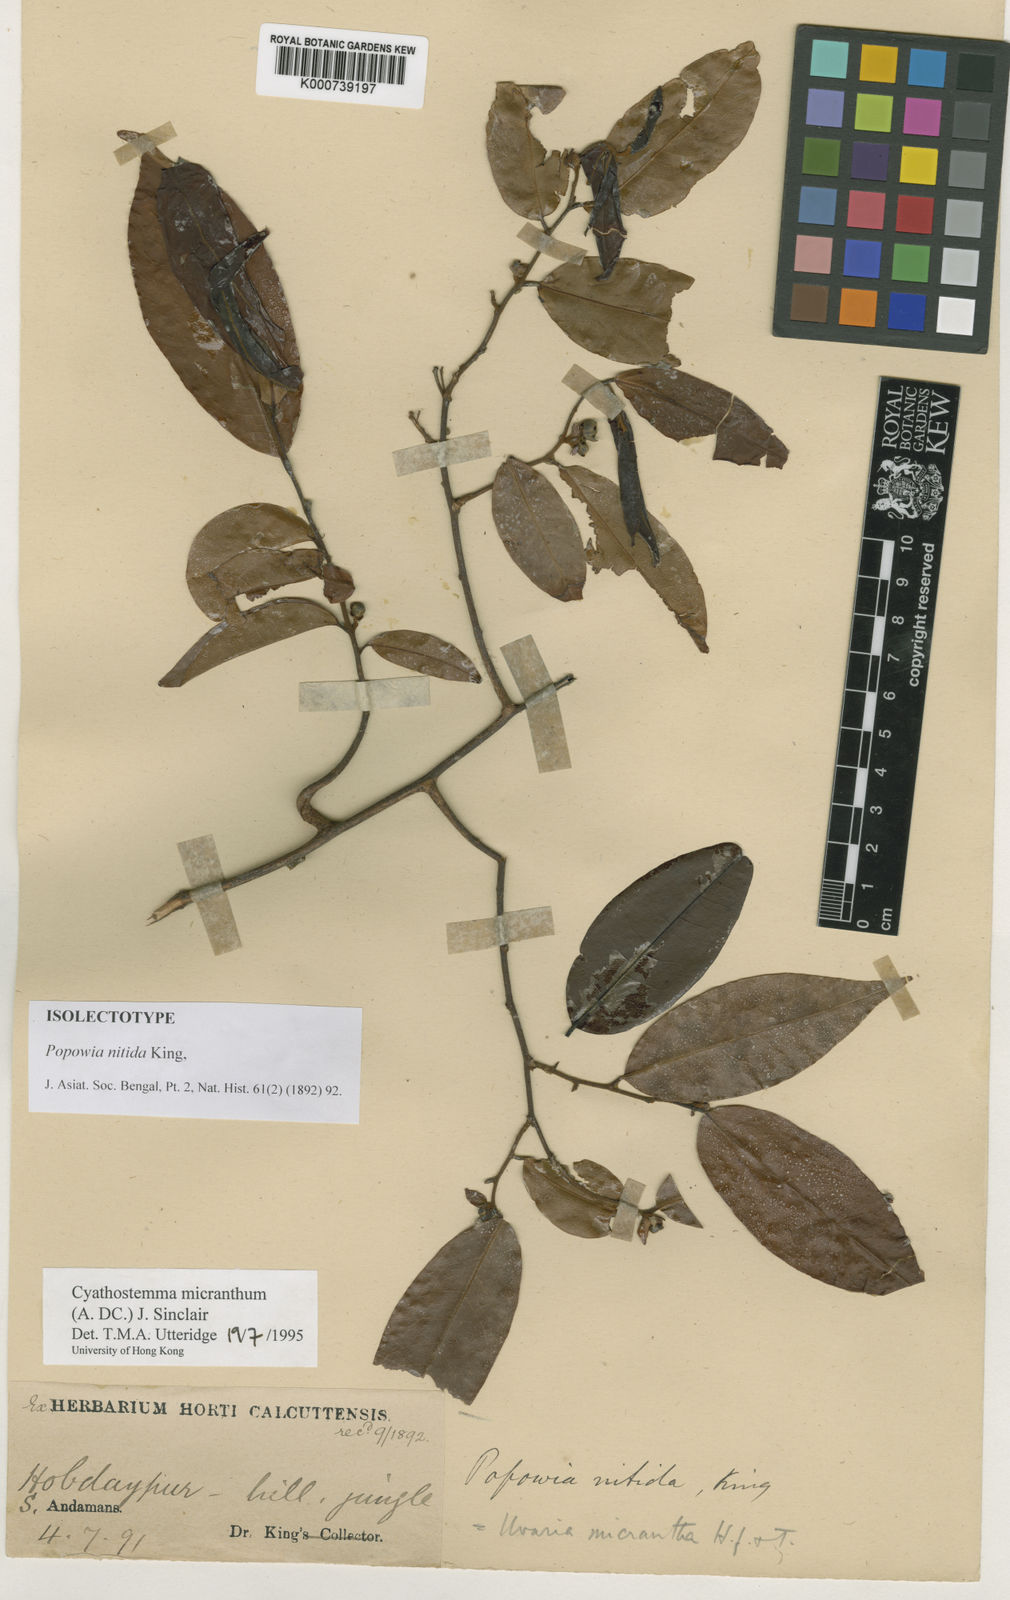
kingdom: Plantae
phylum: Tracheophyta
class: Magnoliopsida
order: Magnoliales
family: Annonaceae
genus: Uvaria
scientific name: Uvaria micrantha
